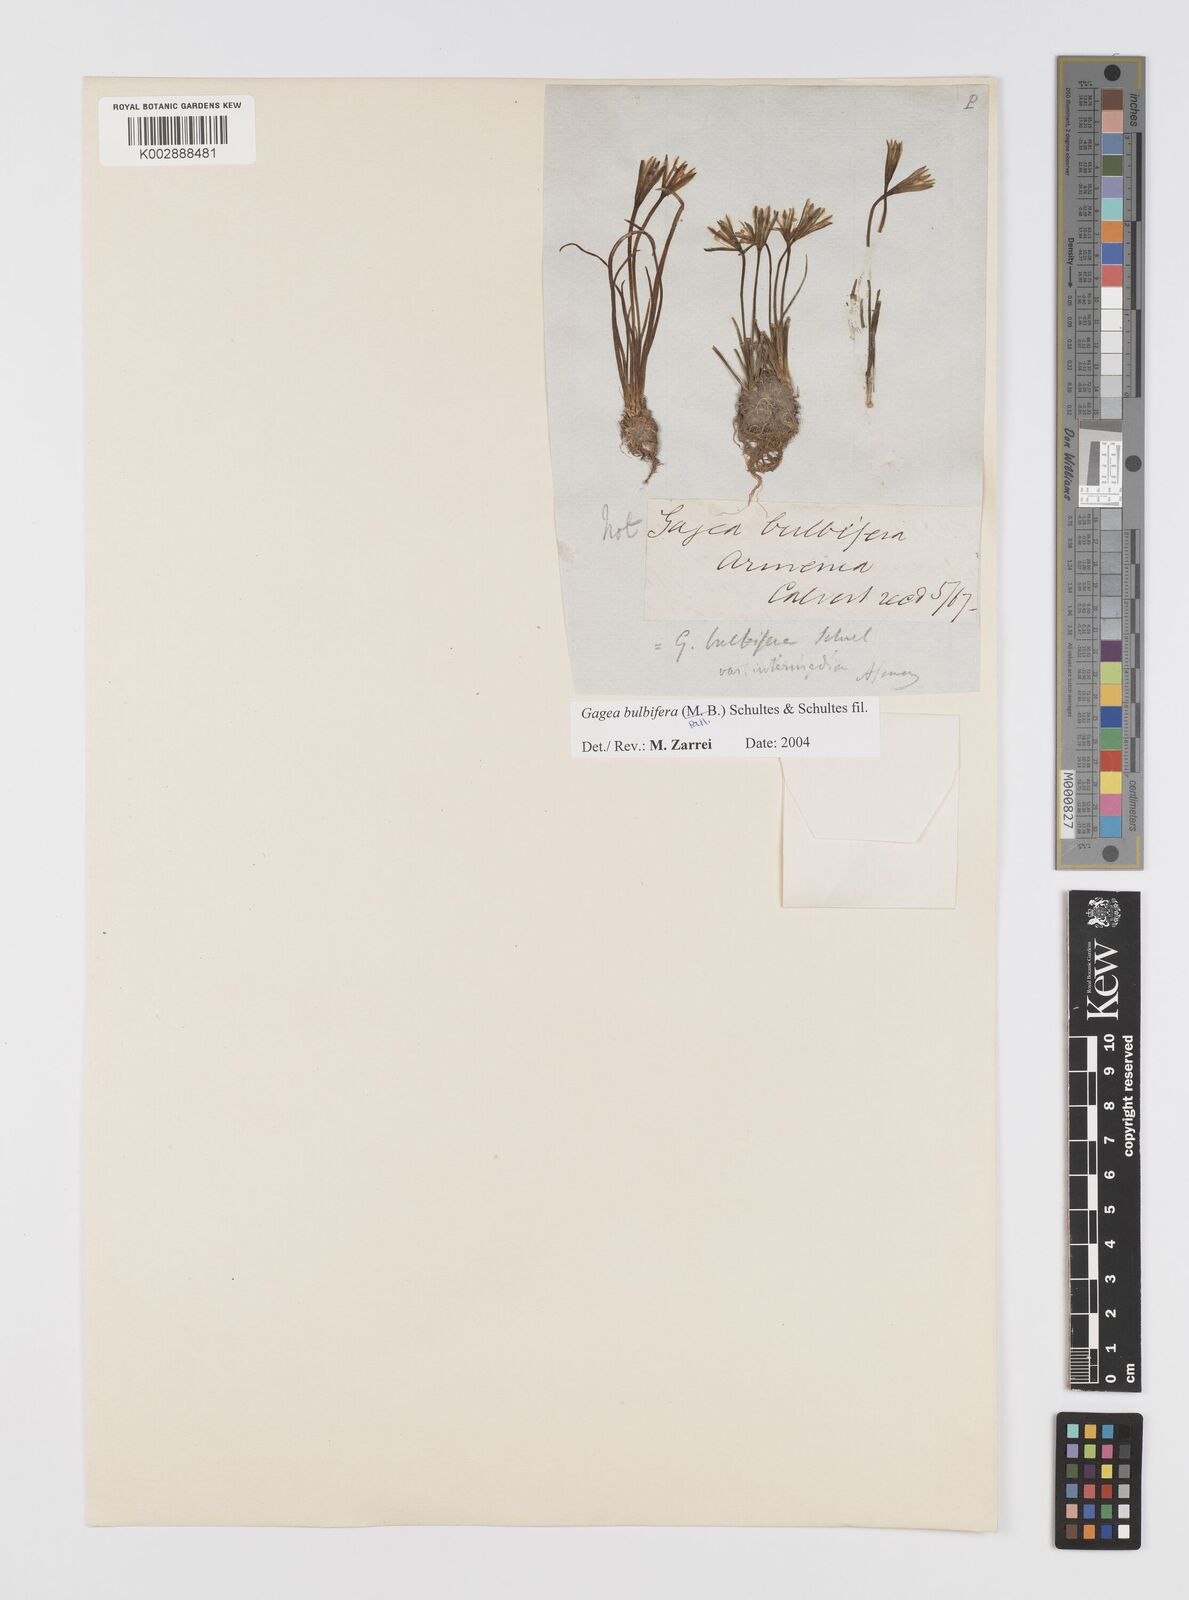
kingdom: Plantae
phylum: Tracheophyta
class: Liliopsida
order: Liliales
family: Liliaceae
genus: Gagea
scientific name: Gagea bulbifera
